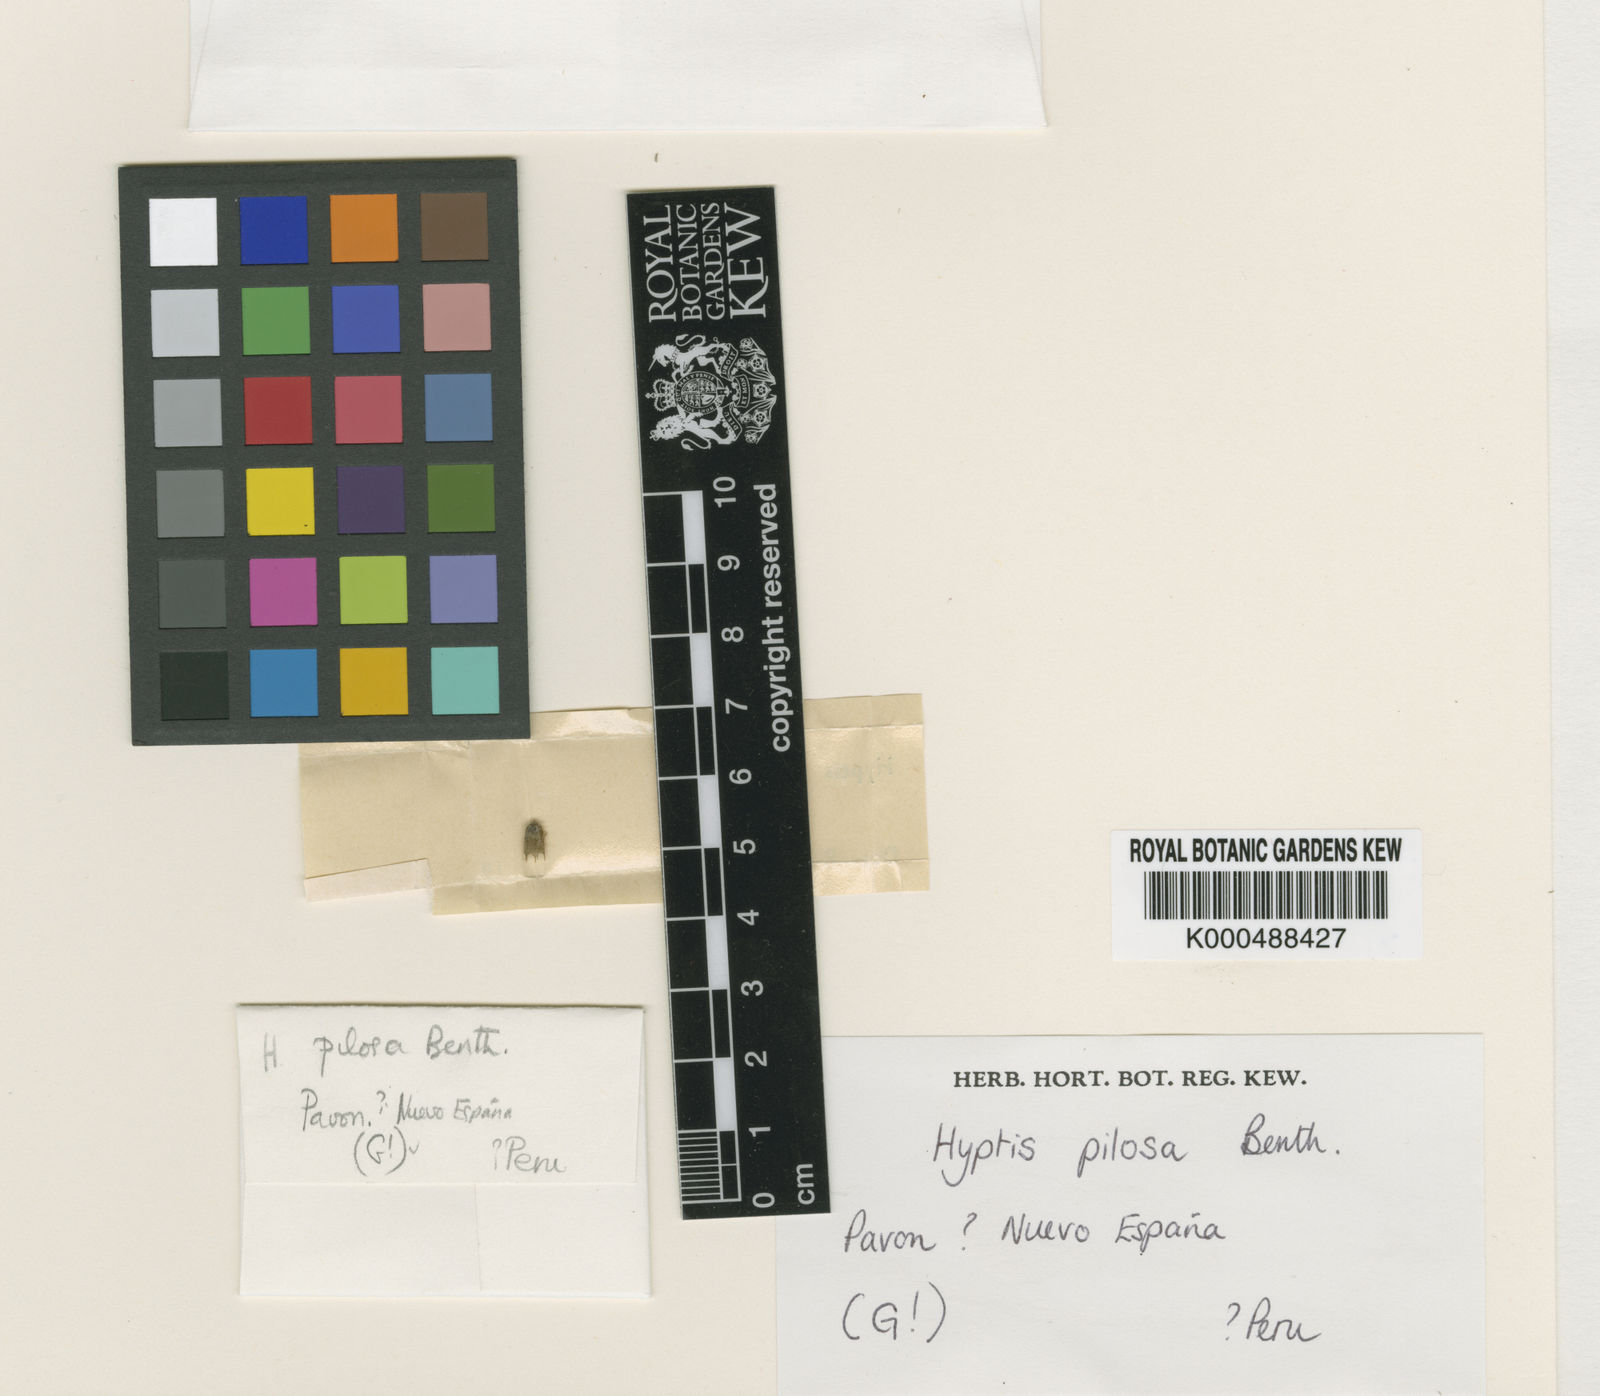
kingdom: Plantae
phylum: Tracheophyta
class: Magnoliopsida
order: Lamiales
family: Lamiaceae
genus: Mesosphaerum
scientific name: Mesosphaerum pilosum
